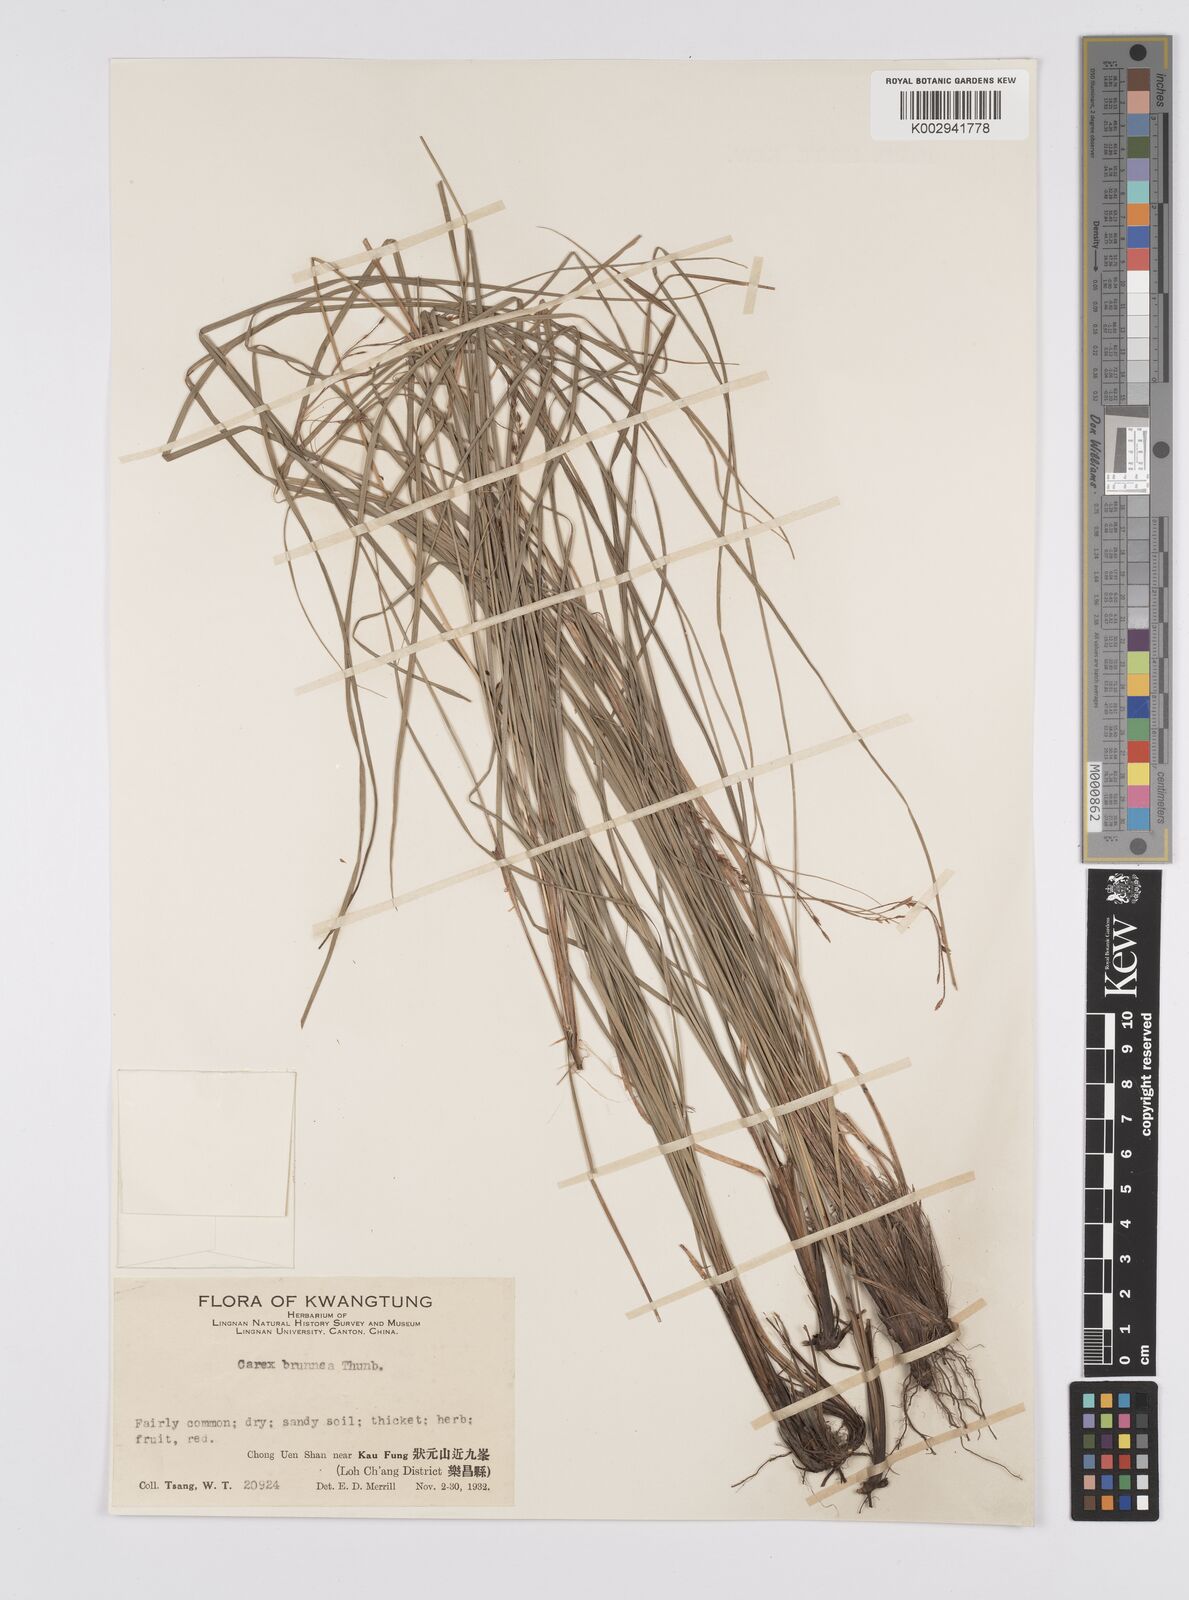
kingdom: Plantae
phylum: Tracheophyta
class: Liliopsida
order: Poales
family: Cyperaceae
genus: Carex
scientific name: Carex brunnea
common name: Greater brown sedge
